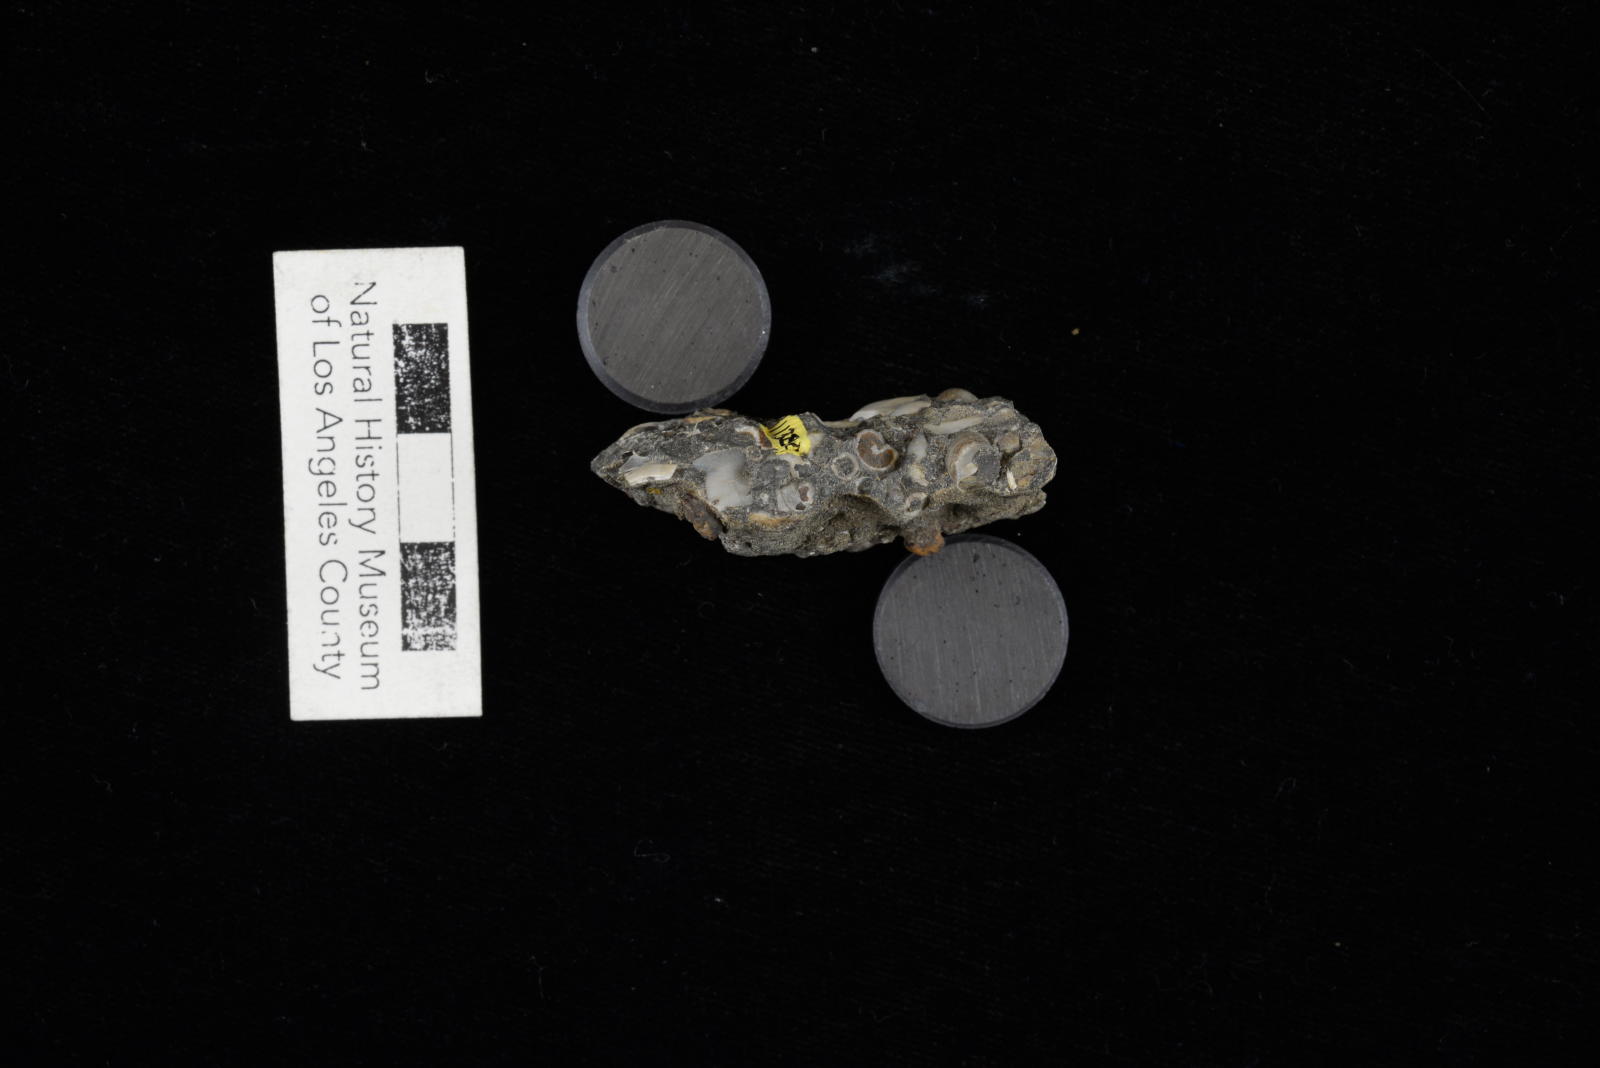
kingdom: Animalia
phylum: Mollusca
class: Gastropoda
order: Littorinimorpha
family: Aporrhaidae
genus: Latiala
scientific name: Latiala heliaca
